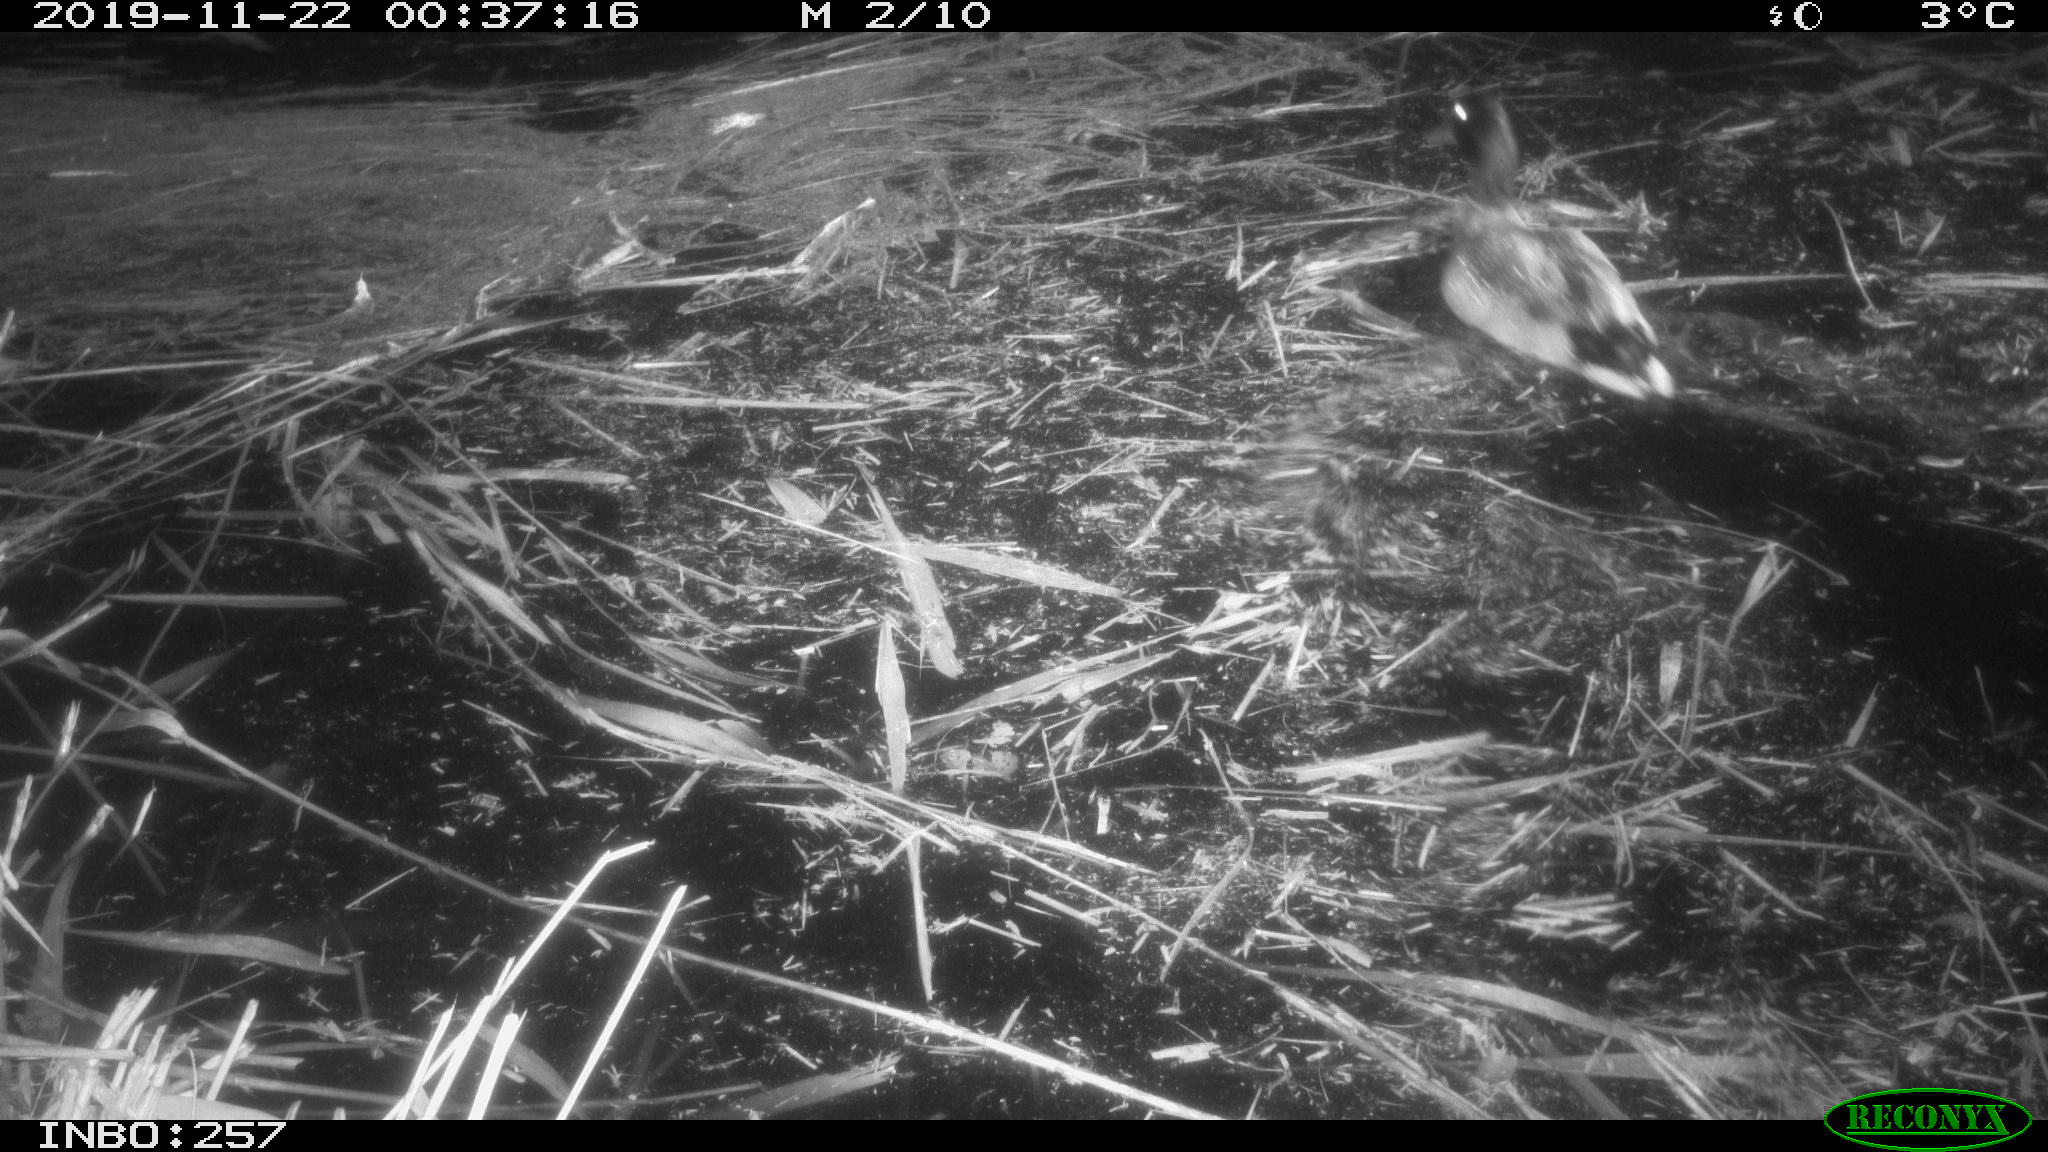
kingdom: Animalia
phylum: Chordata
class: Aves
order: Anseriformes
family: Anatidae
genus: Anas
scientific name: Anas platyrhynchos
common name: Mallard
